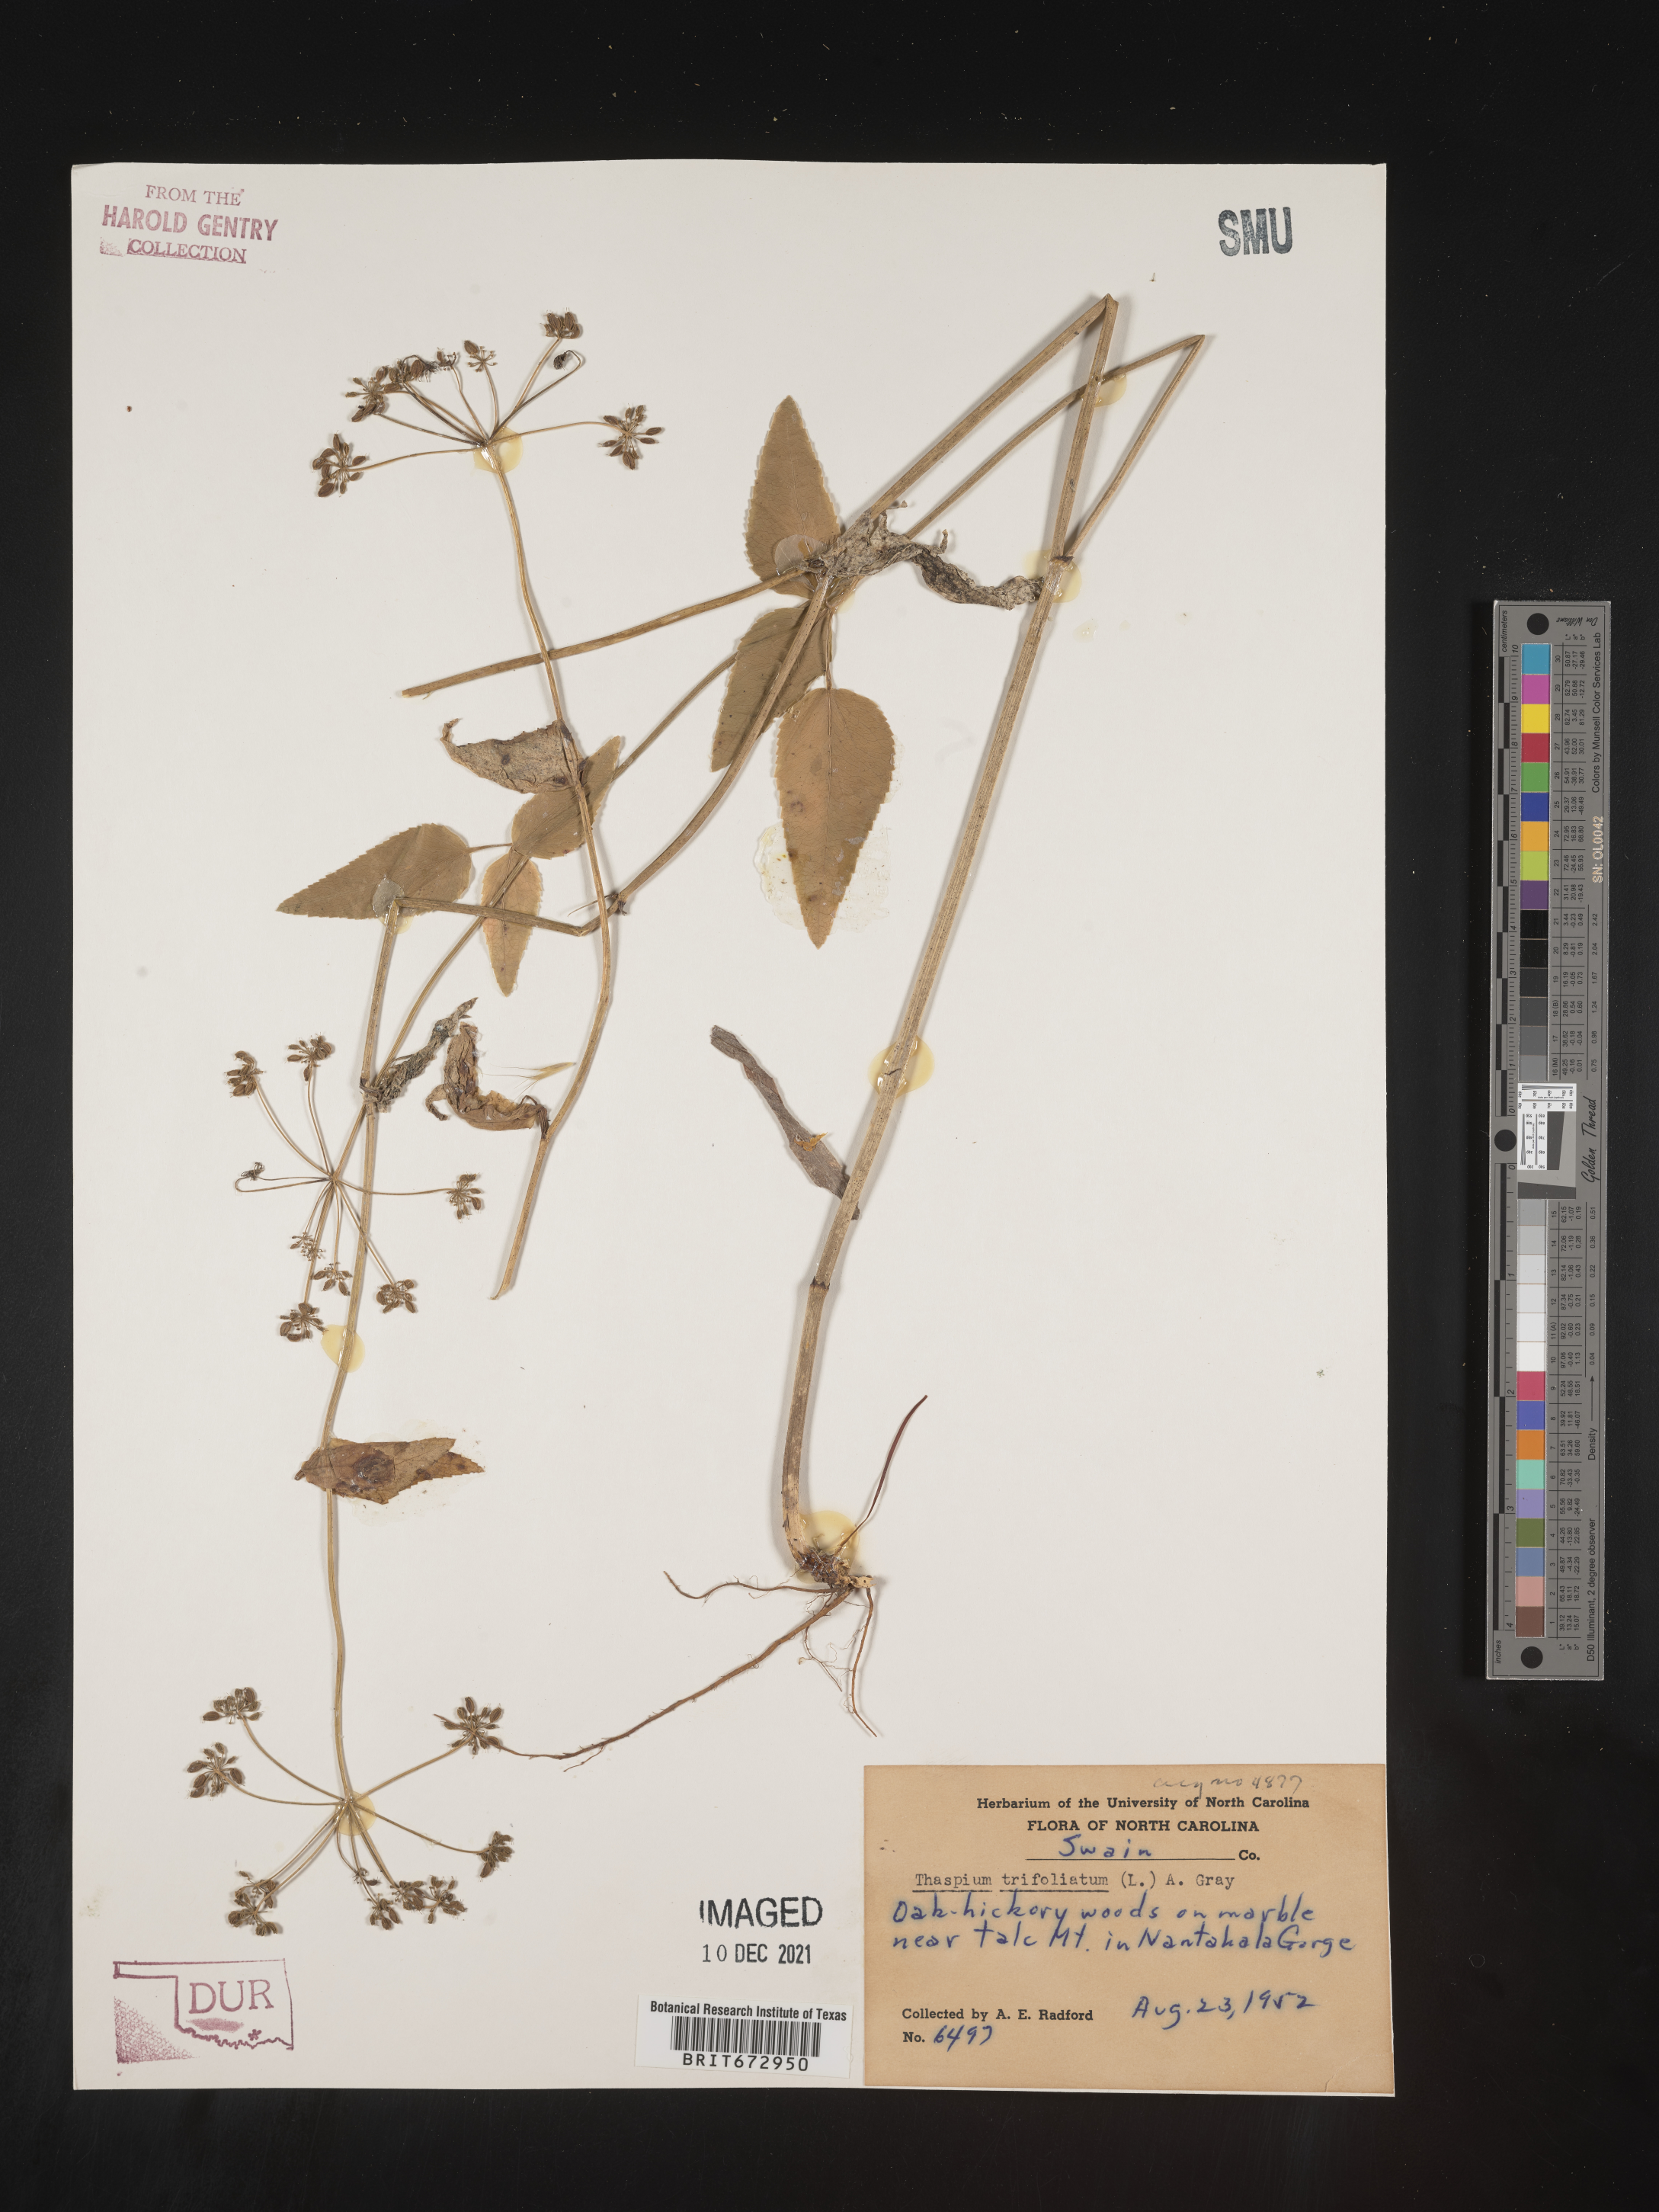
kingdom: Plantae
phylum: Tracheophyta
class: Magnoliopsida
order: Apiales
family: Apiaceae
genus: Thaspium
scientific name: Thaspium
